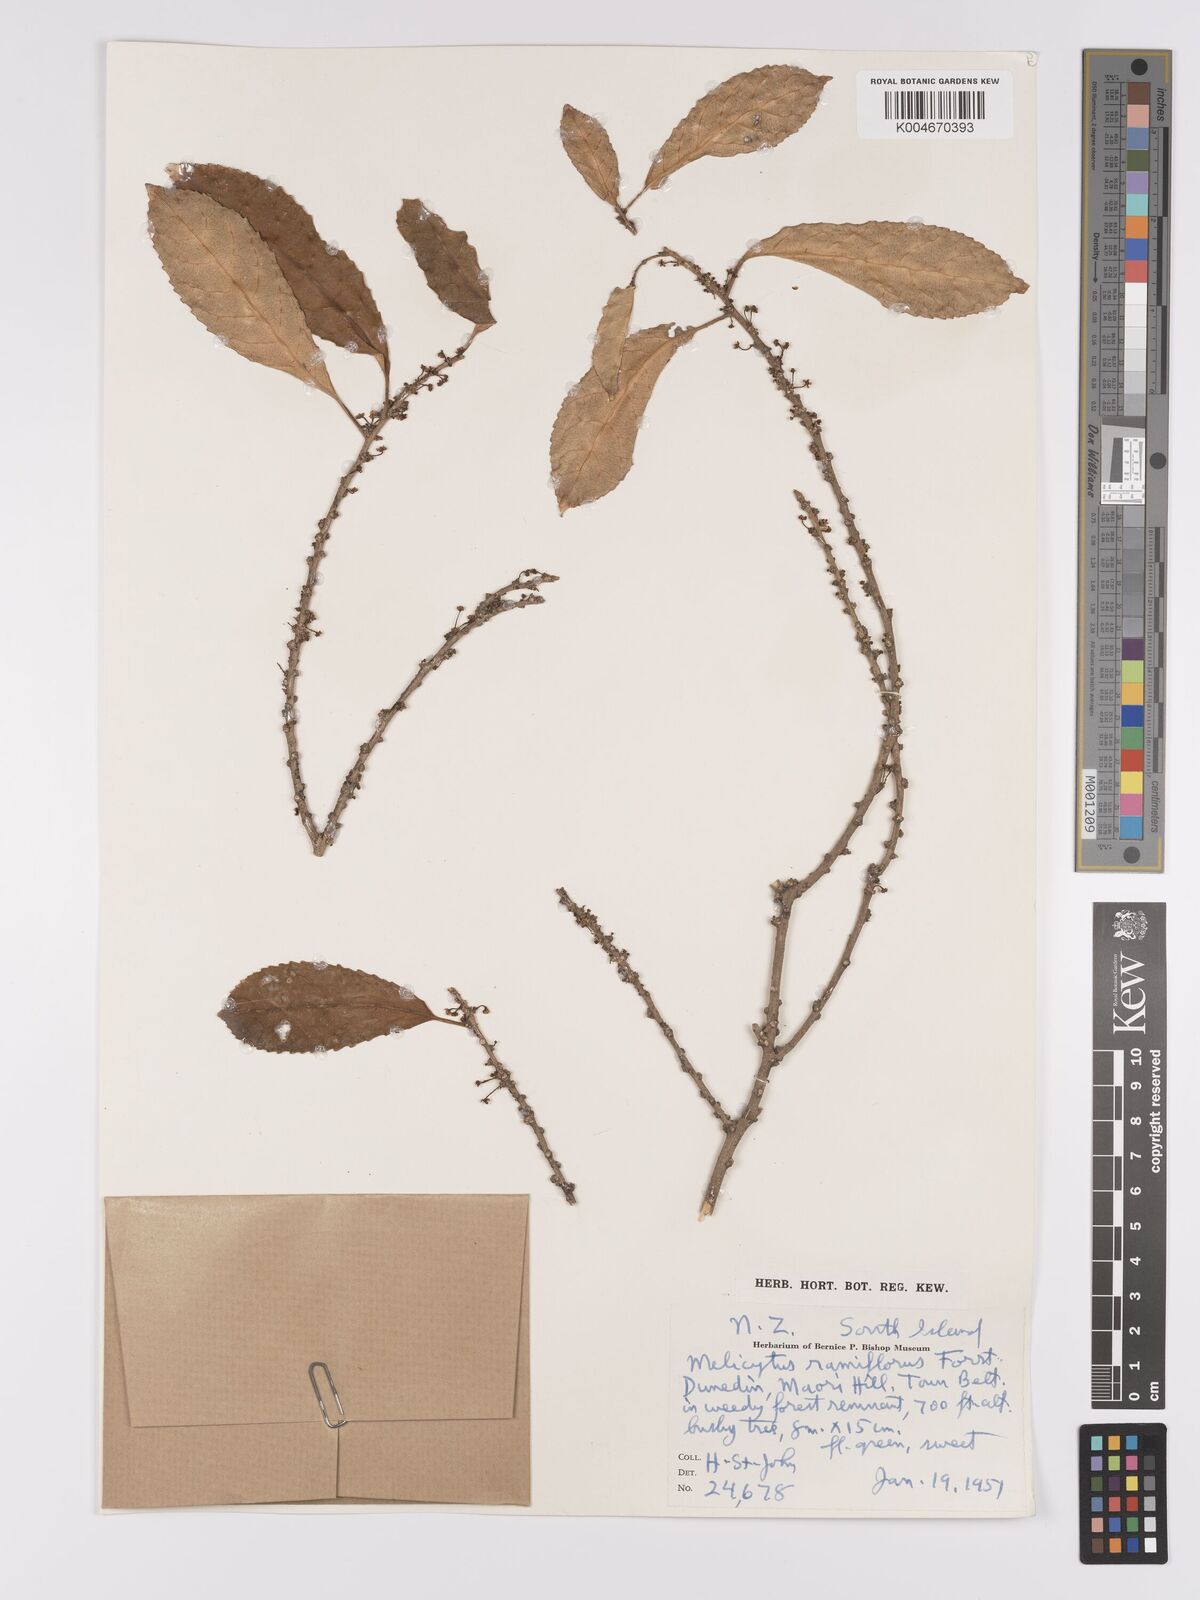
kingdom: Plantae
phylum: Tracheophyta
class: Magnoliopsida
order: Malpighiales
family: Violaceae
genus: Melicytus
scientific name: Melicytus ramiflorus
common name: Mahoe
